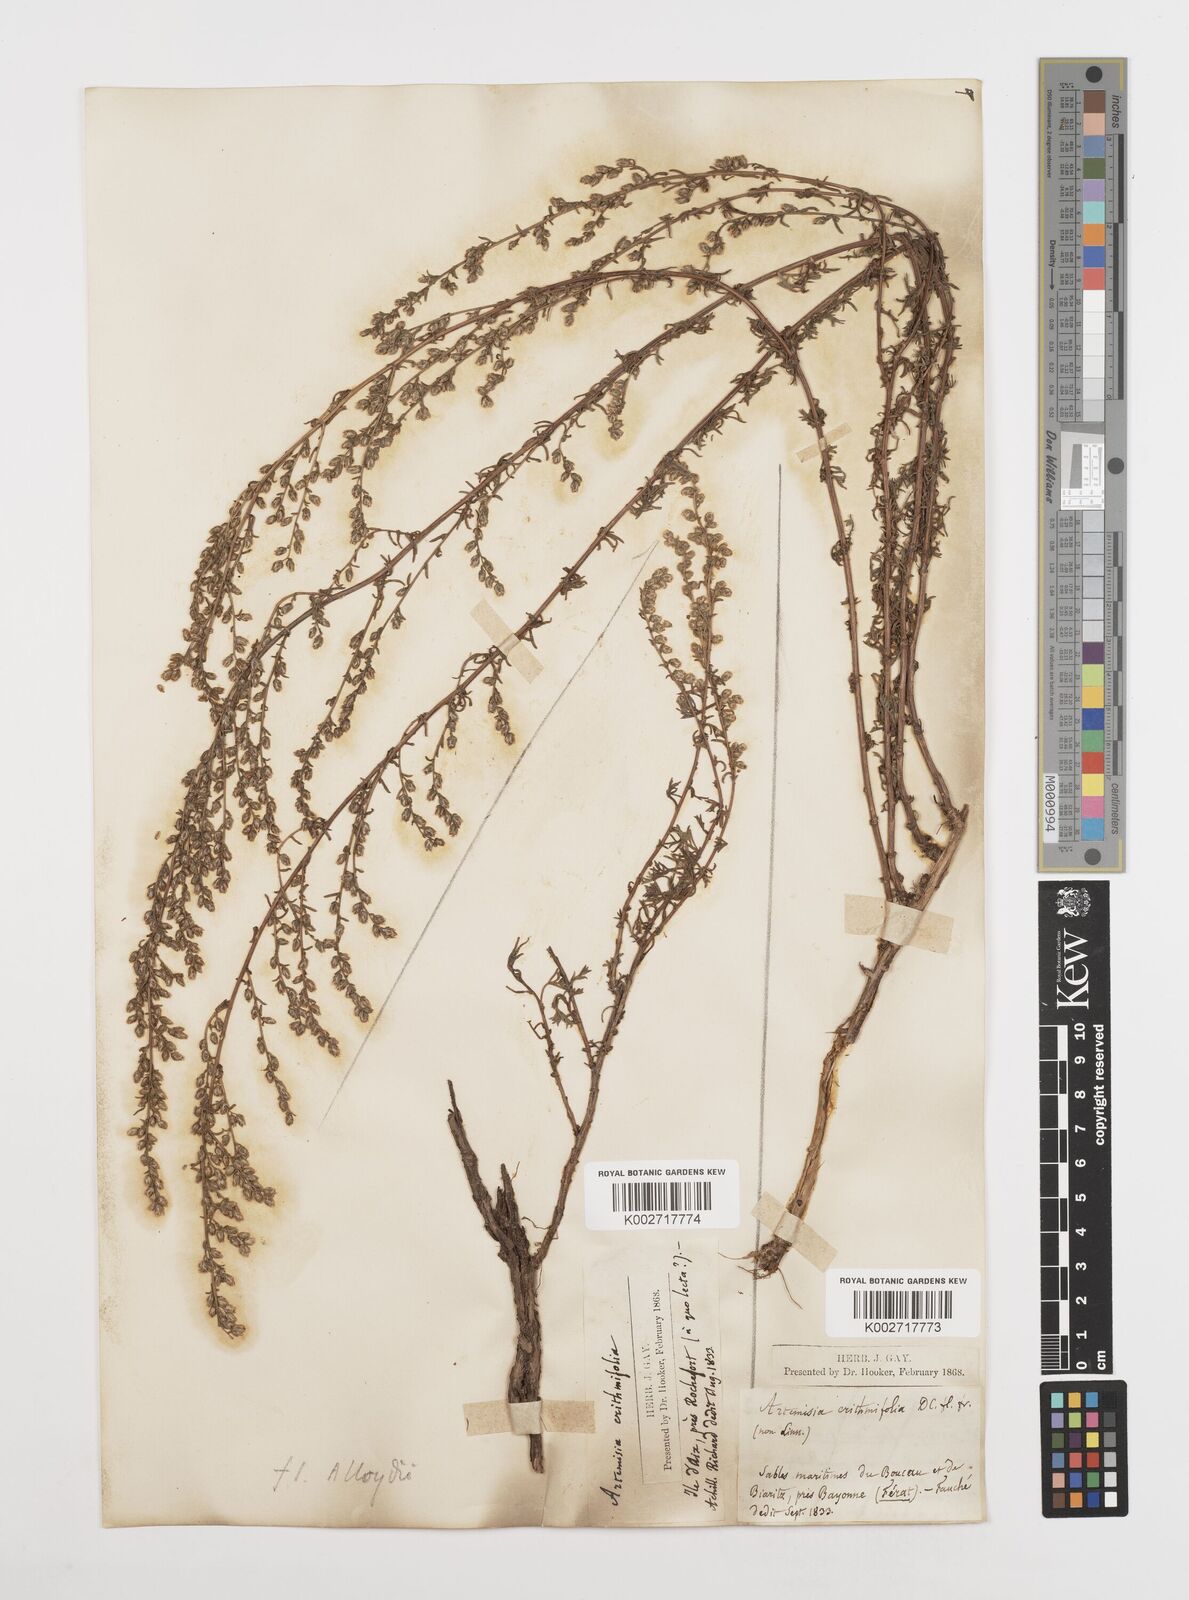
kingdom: Plantae
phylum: Tracheophyta
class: Magnoliopsida
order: Asterales
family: Asteraceae
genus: Artemisia
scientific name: Artemisia campestris
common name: Field wormwood
